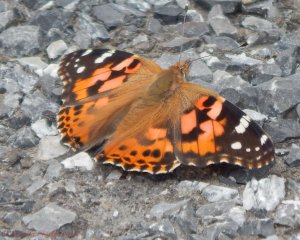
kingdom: Animalia
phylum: Arthropoda
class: Insecta
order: Lepidoptera
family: Nymphalidae
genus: Vanessa
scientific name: Vanessa cardui
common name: Painted Lady
